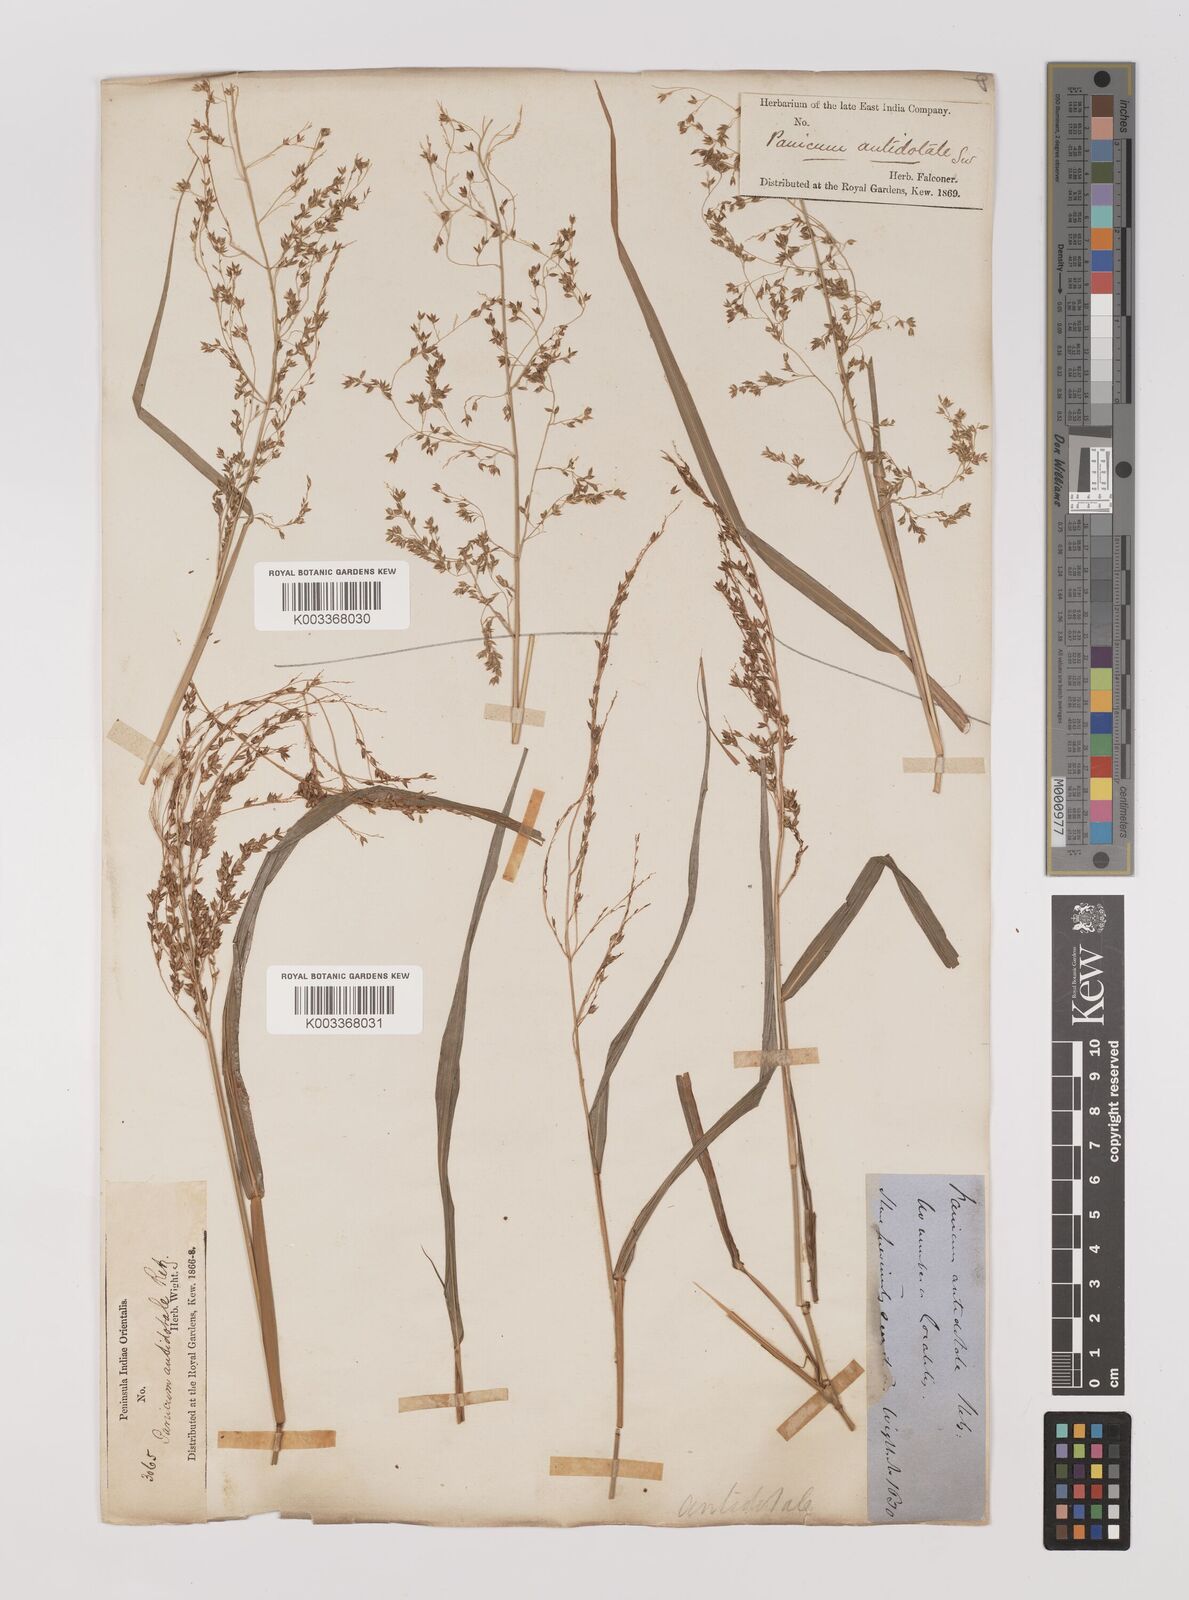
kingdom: Plantae
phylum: Tracheophyta
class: Liliopsida
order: Poales
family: Poaceae
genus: Panicum
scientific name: Panicum antidotale
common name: Blue panicum
